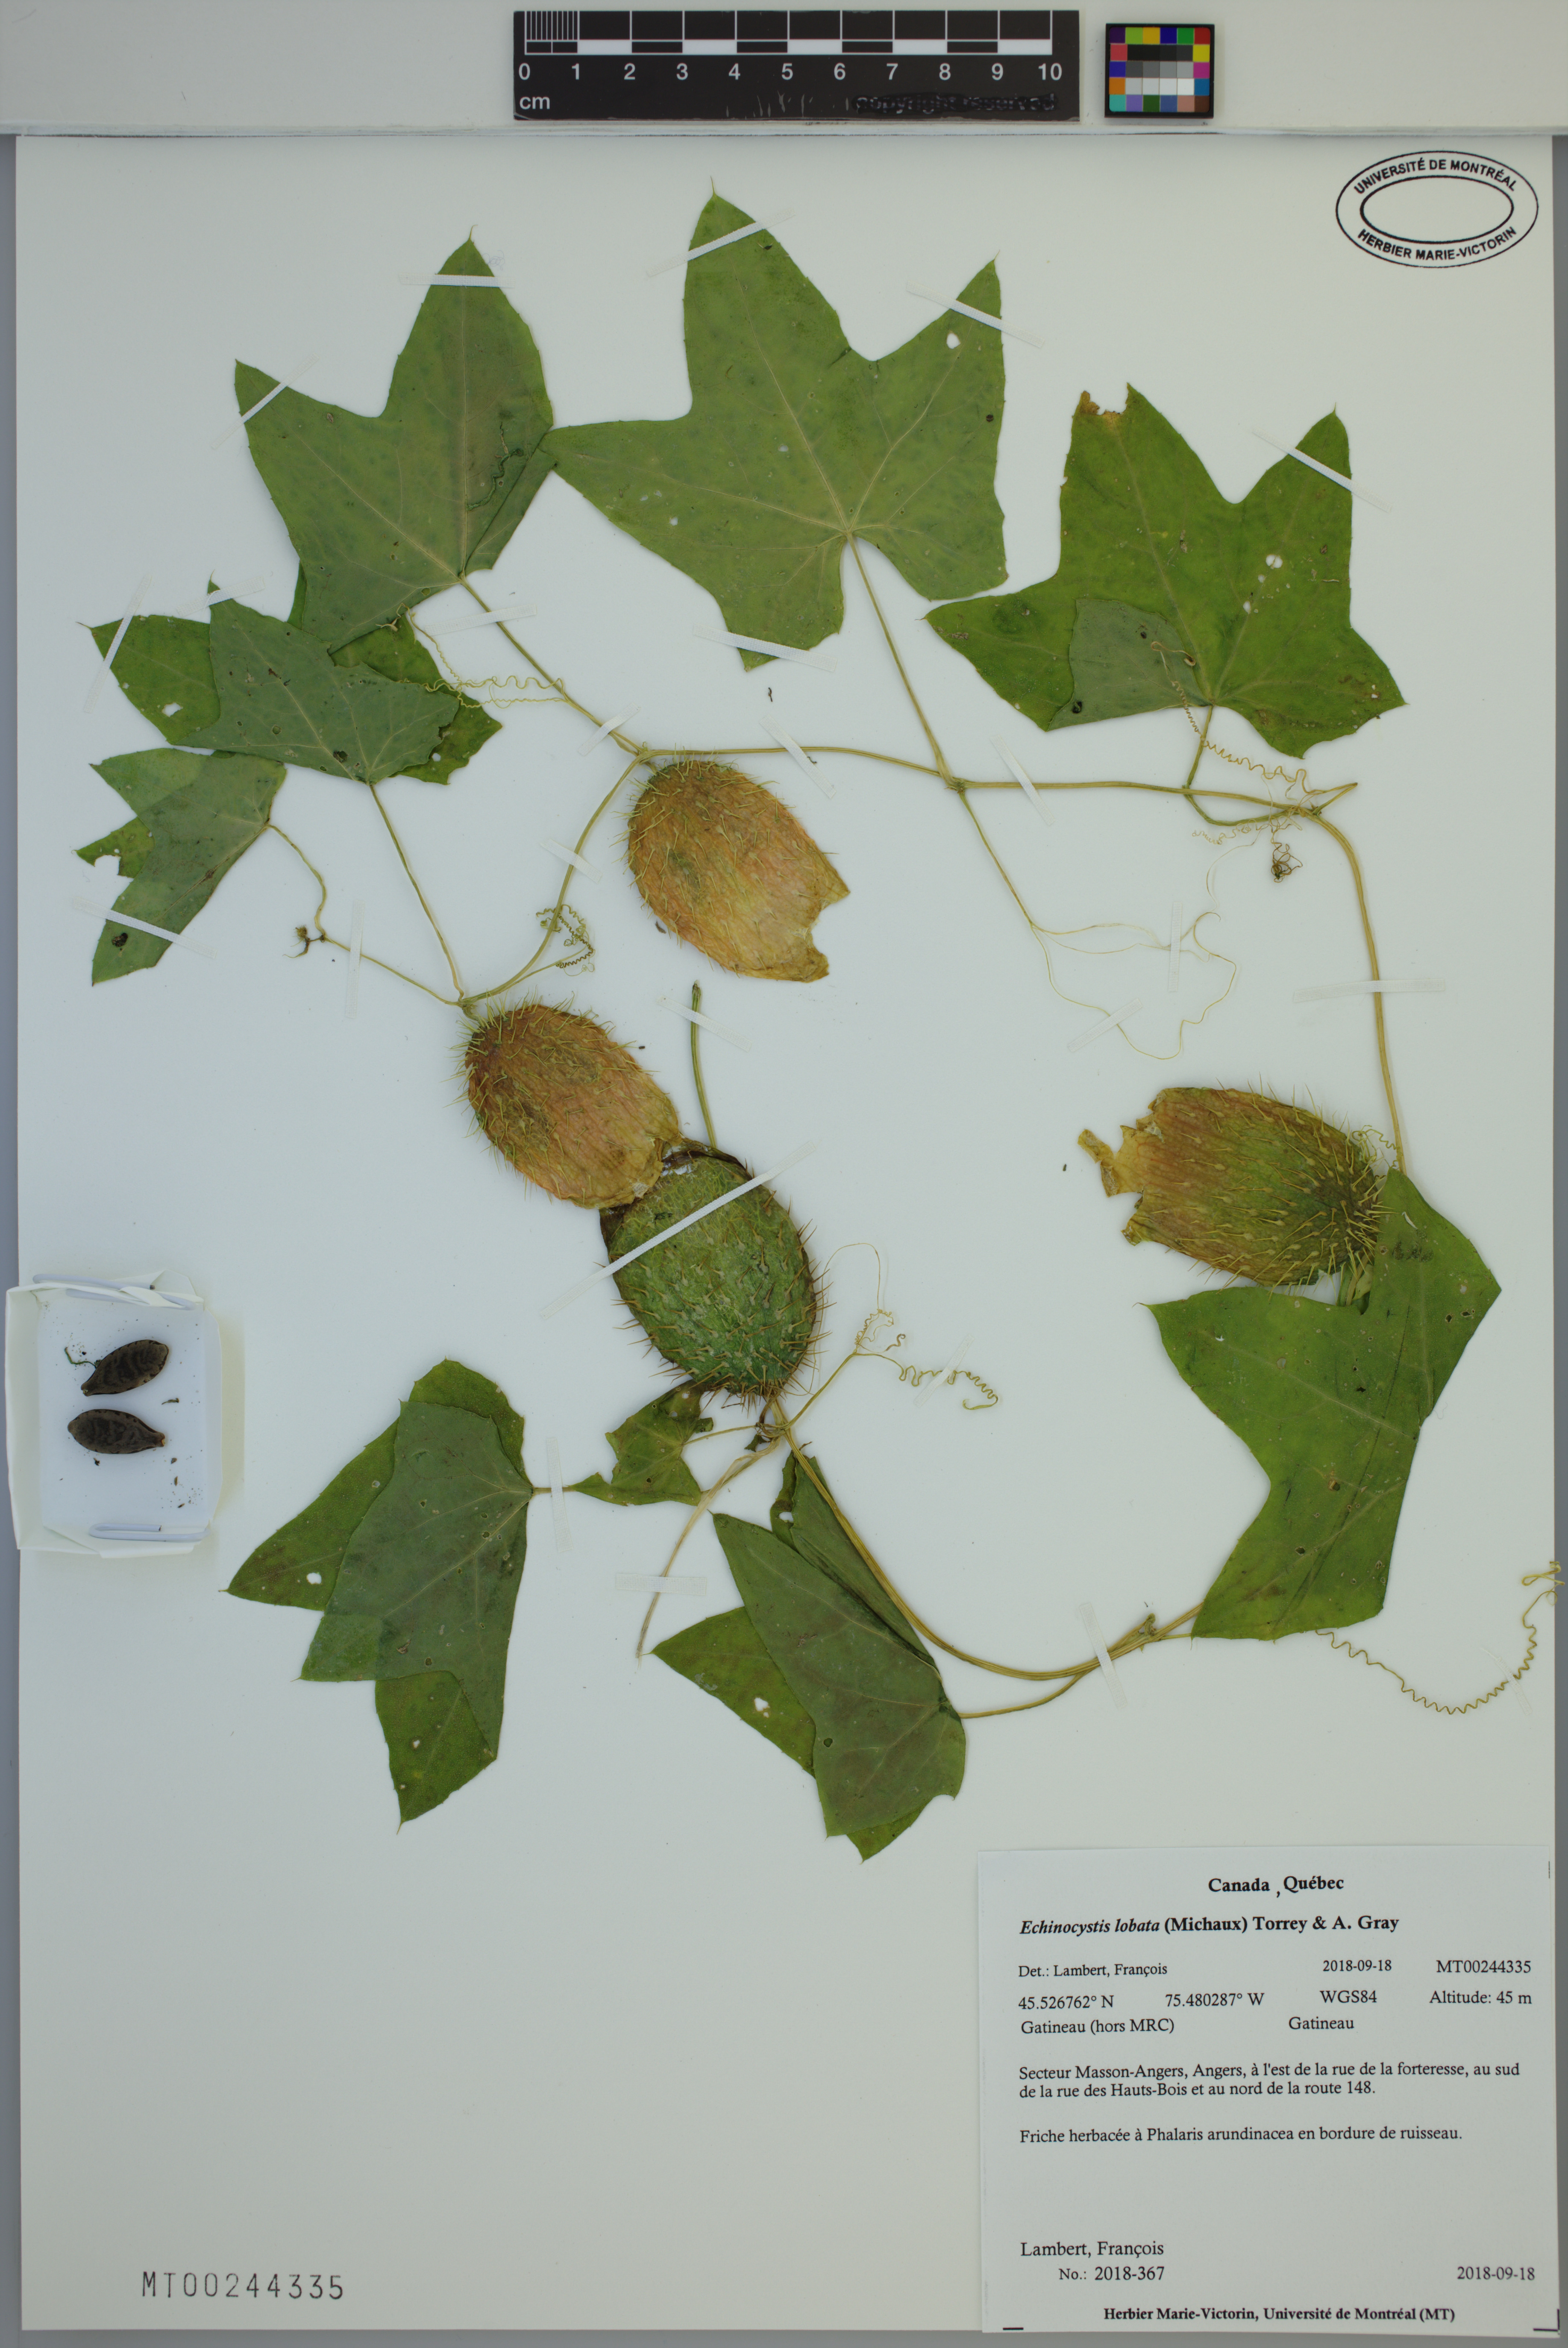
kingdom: Plantae
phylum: Tracheophyta
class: Magnoliopsida
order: Cucurbitales
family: Cucurbitaceae
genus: Echinocystis
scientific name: Echinocystis lobata
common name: Wild cucumber
